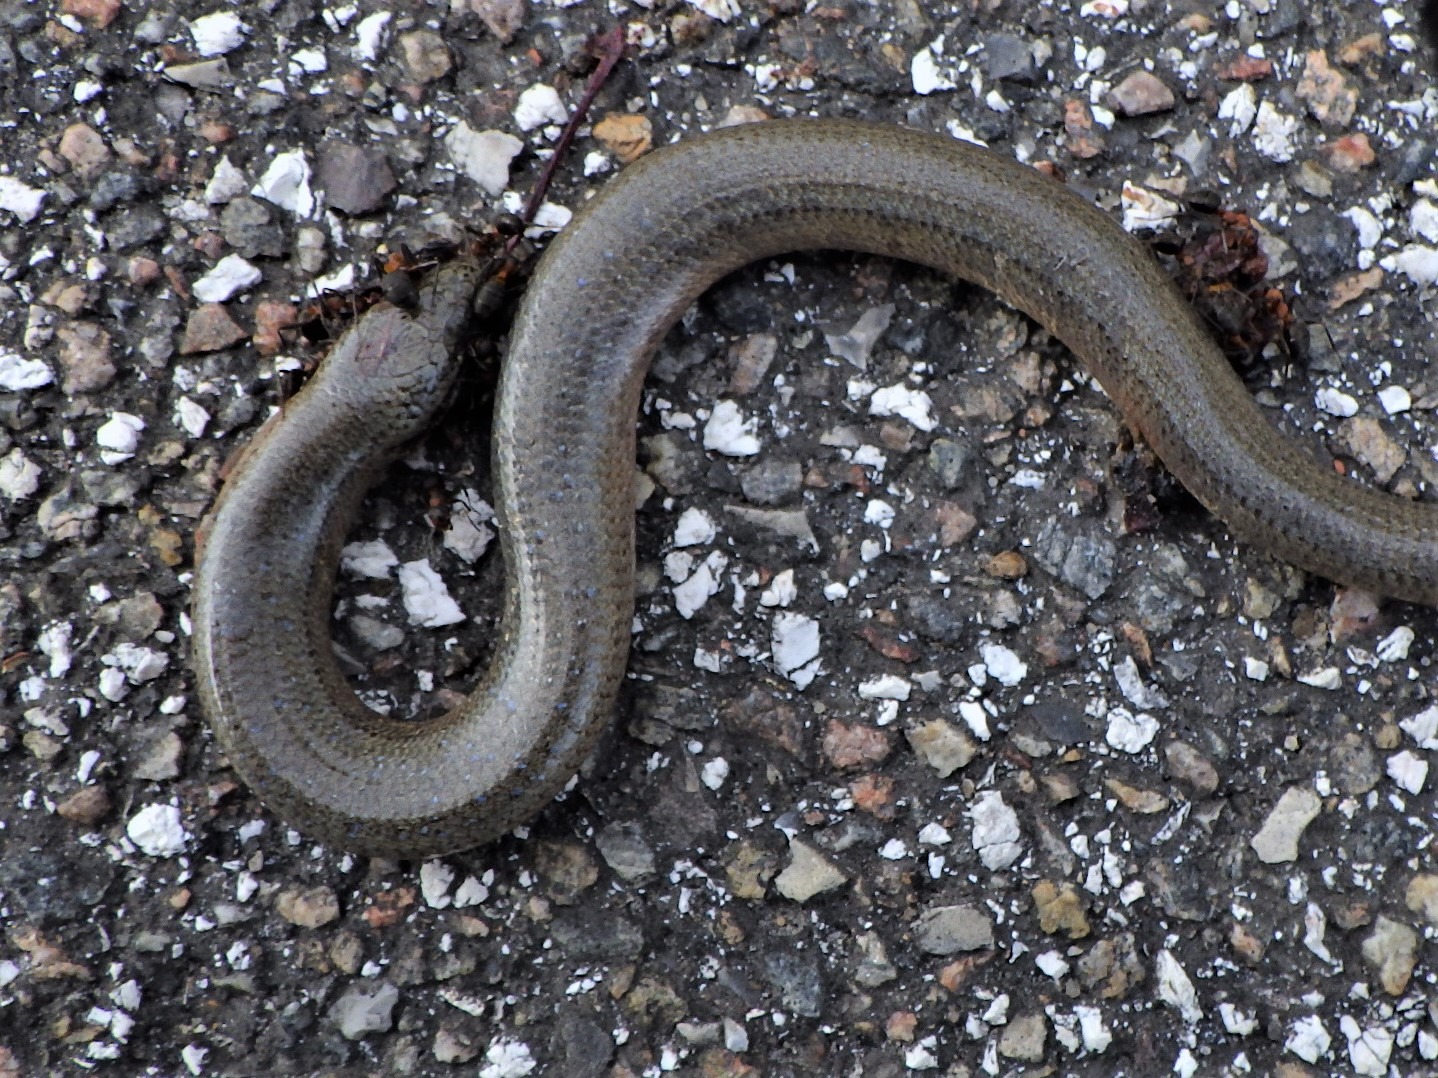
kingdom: Animalia
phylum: Chordata
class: Squamata
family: Anguidae
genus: Anguis
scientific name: Anguis fragilis
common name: Stålorm
